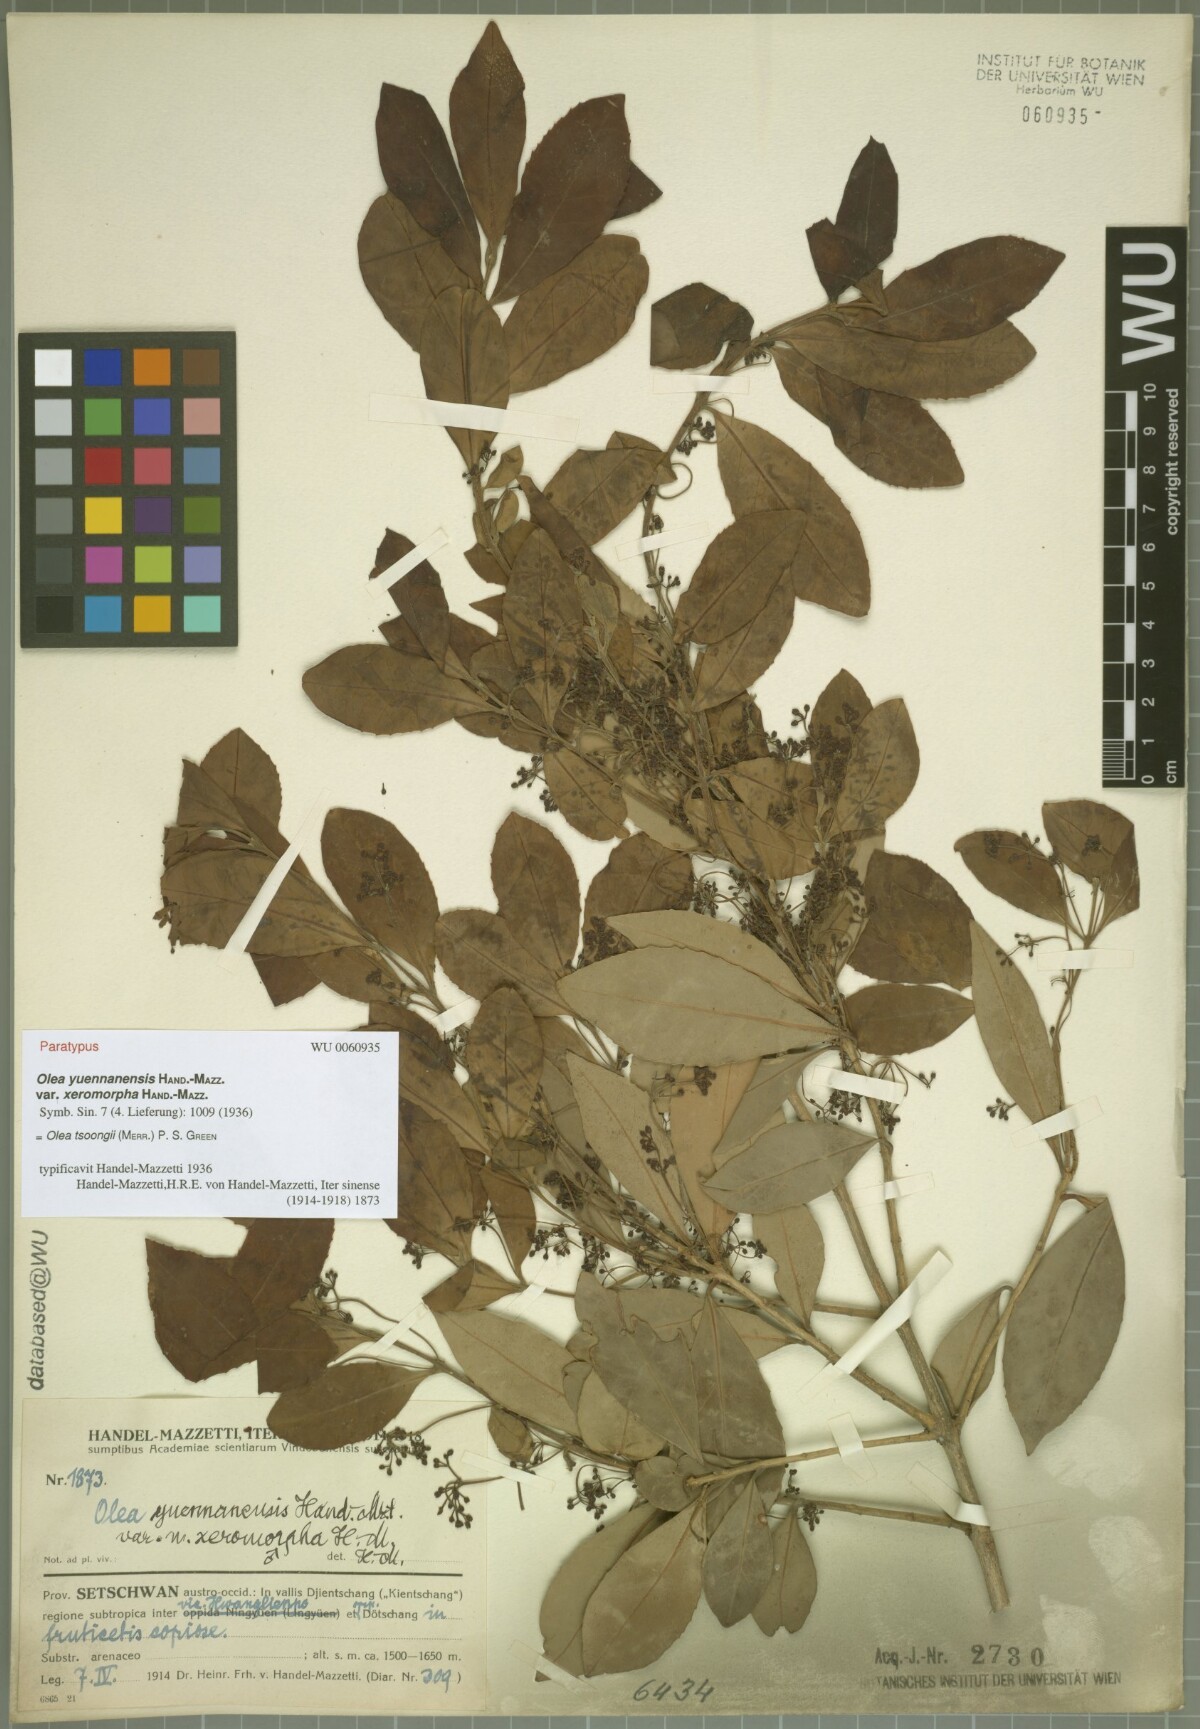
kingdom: Plantae
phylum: Tracheophyta
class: Magnoliopsida
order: Lamiales
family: Oleaceae
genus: Tetrapilus
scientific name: Tetrapilus tsoongii
